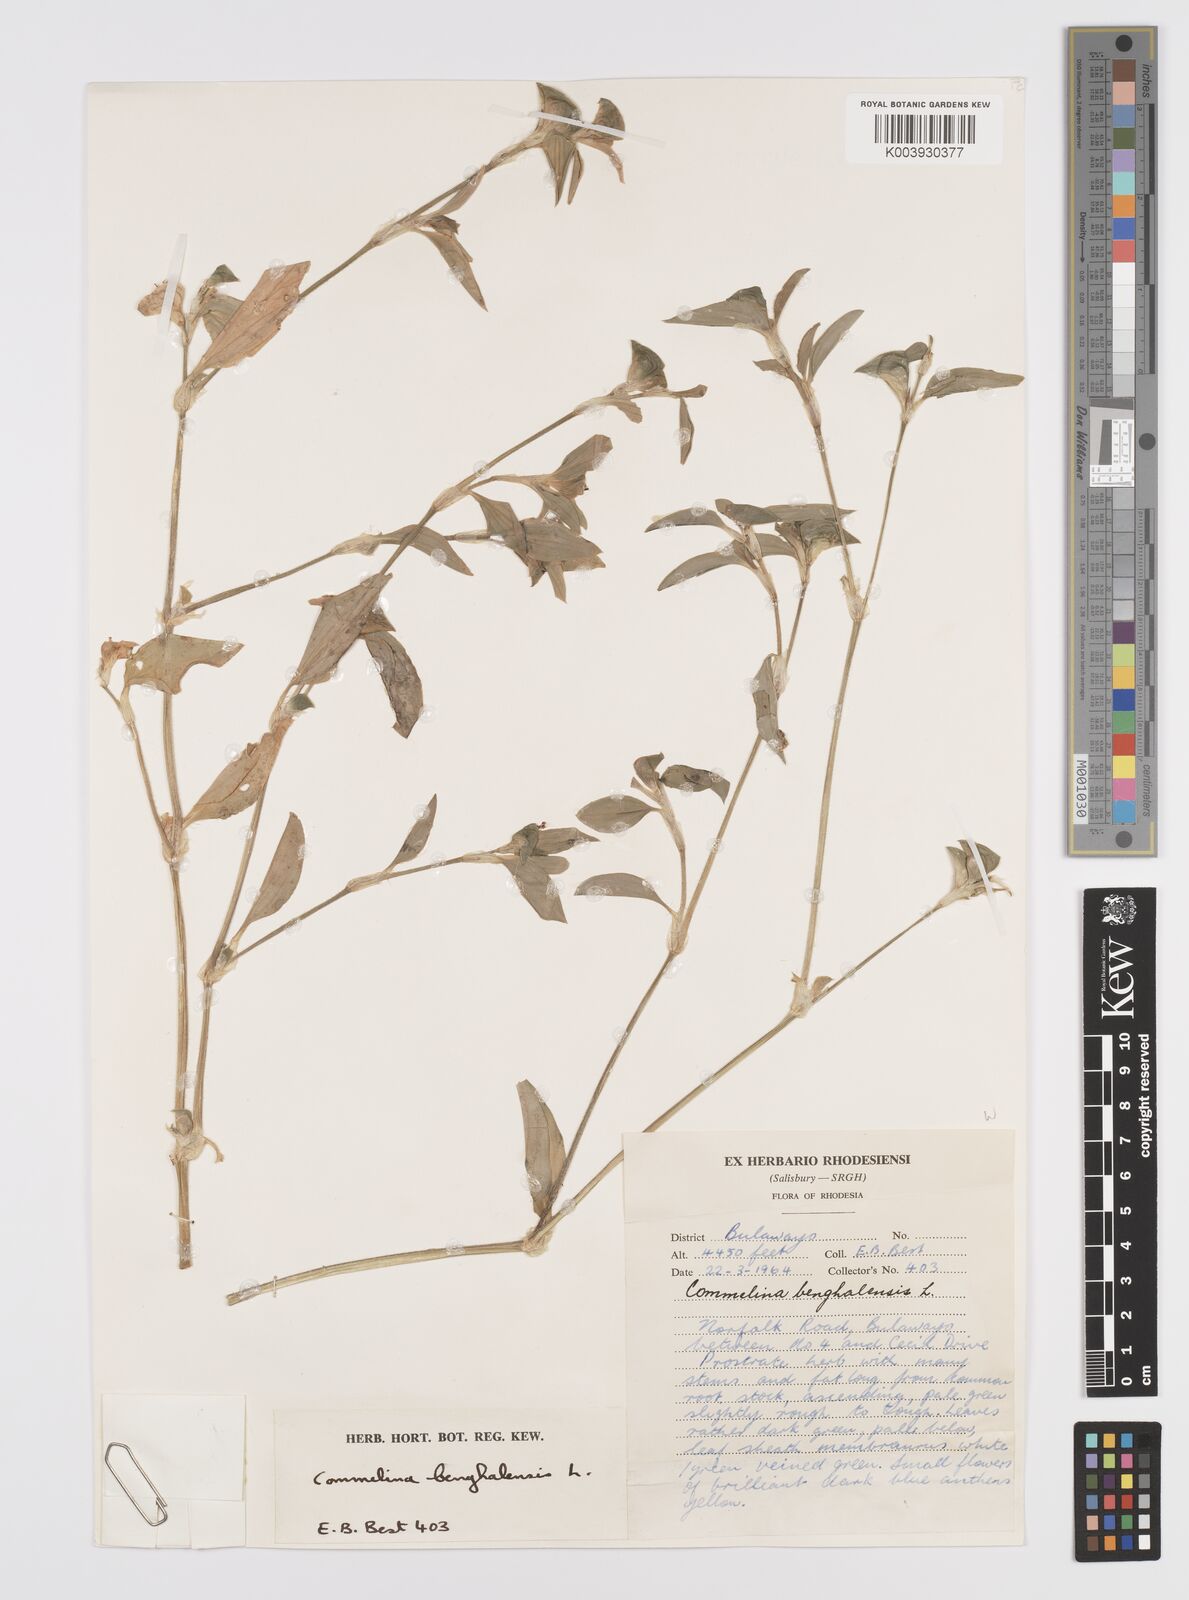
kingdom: Plantae
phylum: Tracheophyta
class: Liliopsida
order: Commelinales
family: Commelinaceae
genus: Commelina
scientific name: Commelina benghalensis
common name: Jio
